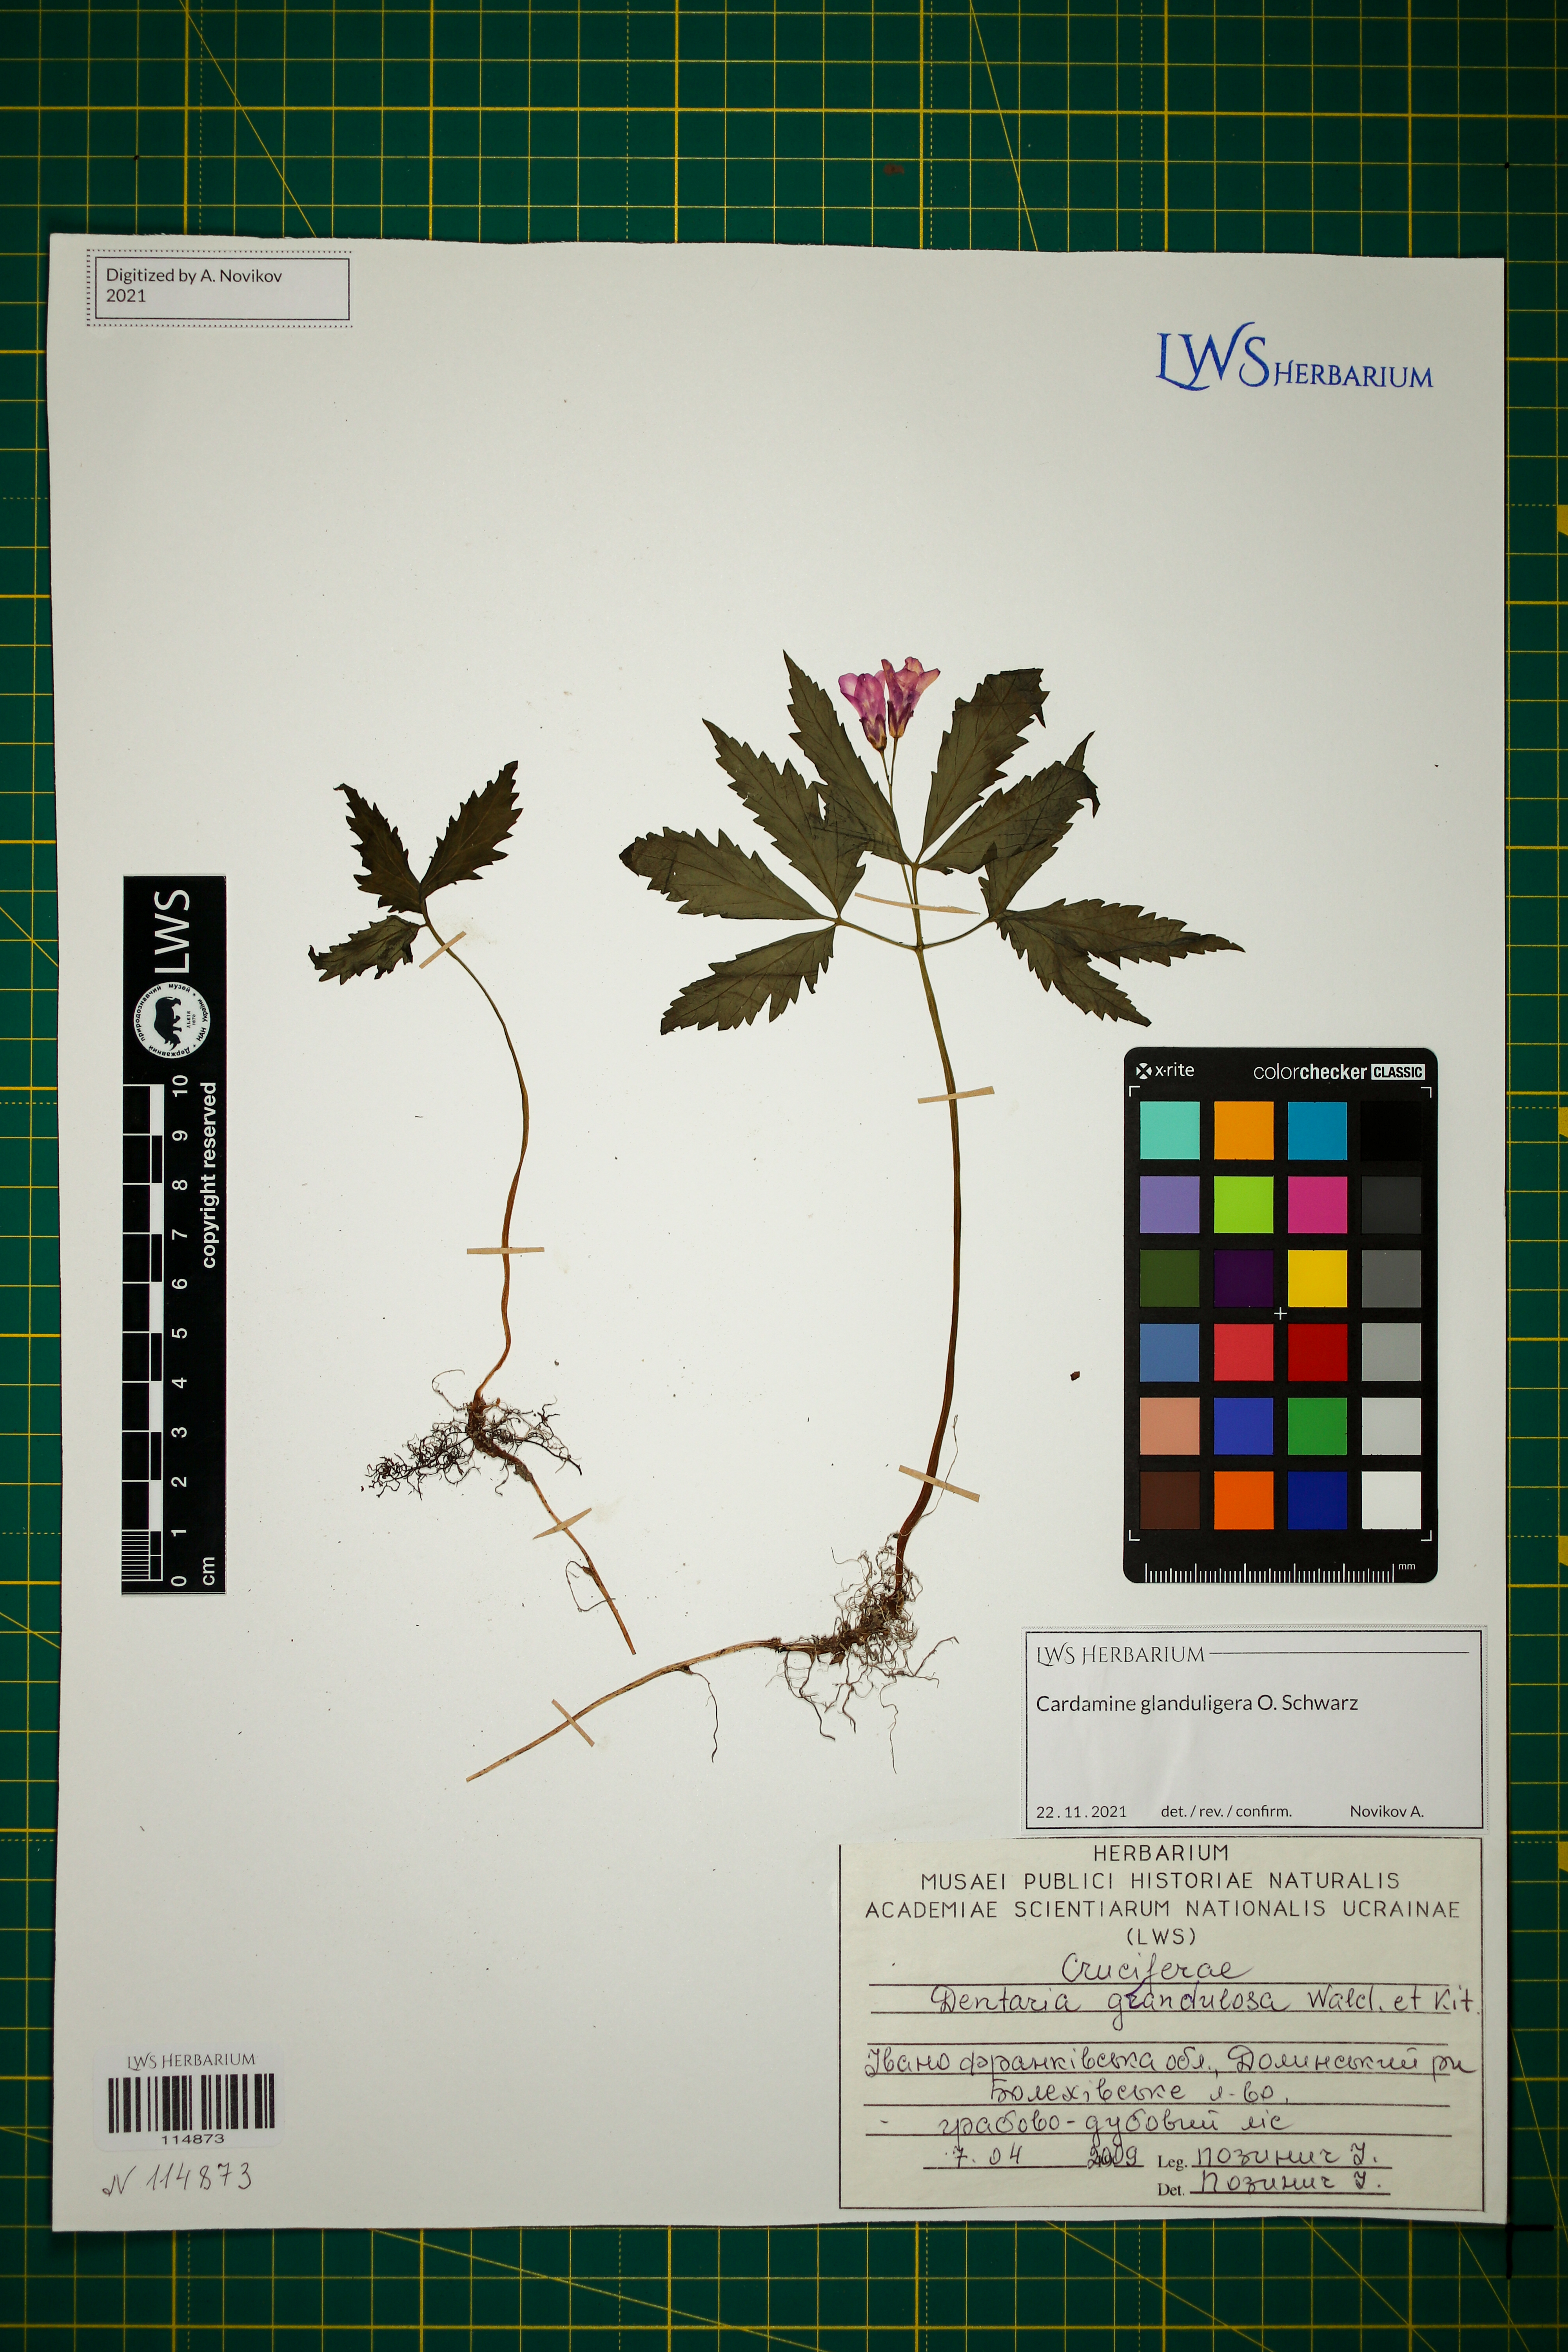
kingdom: Plantae
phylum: Tracheophyta
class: Magnoliopsida
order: Brassicales
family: Brassicaceae
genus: Cardamine
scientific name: Cardamine glanduligera
